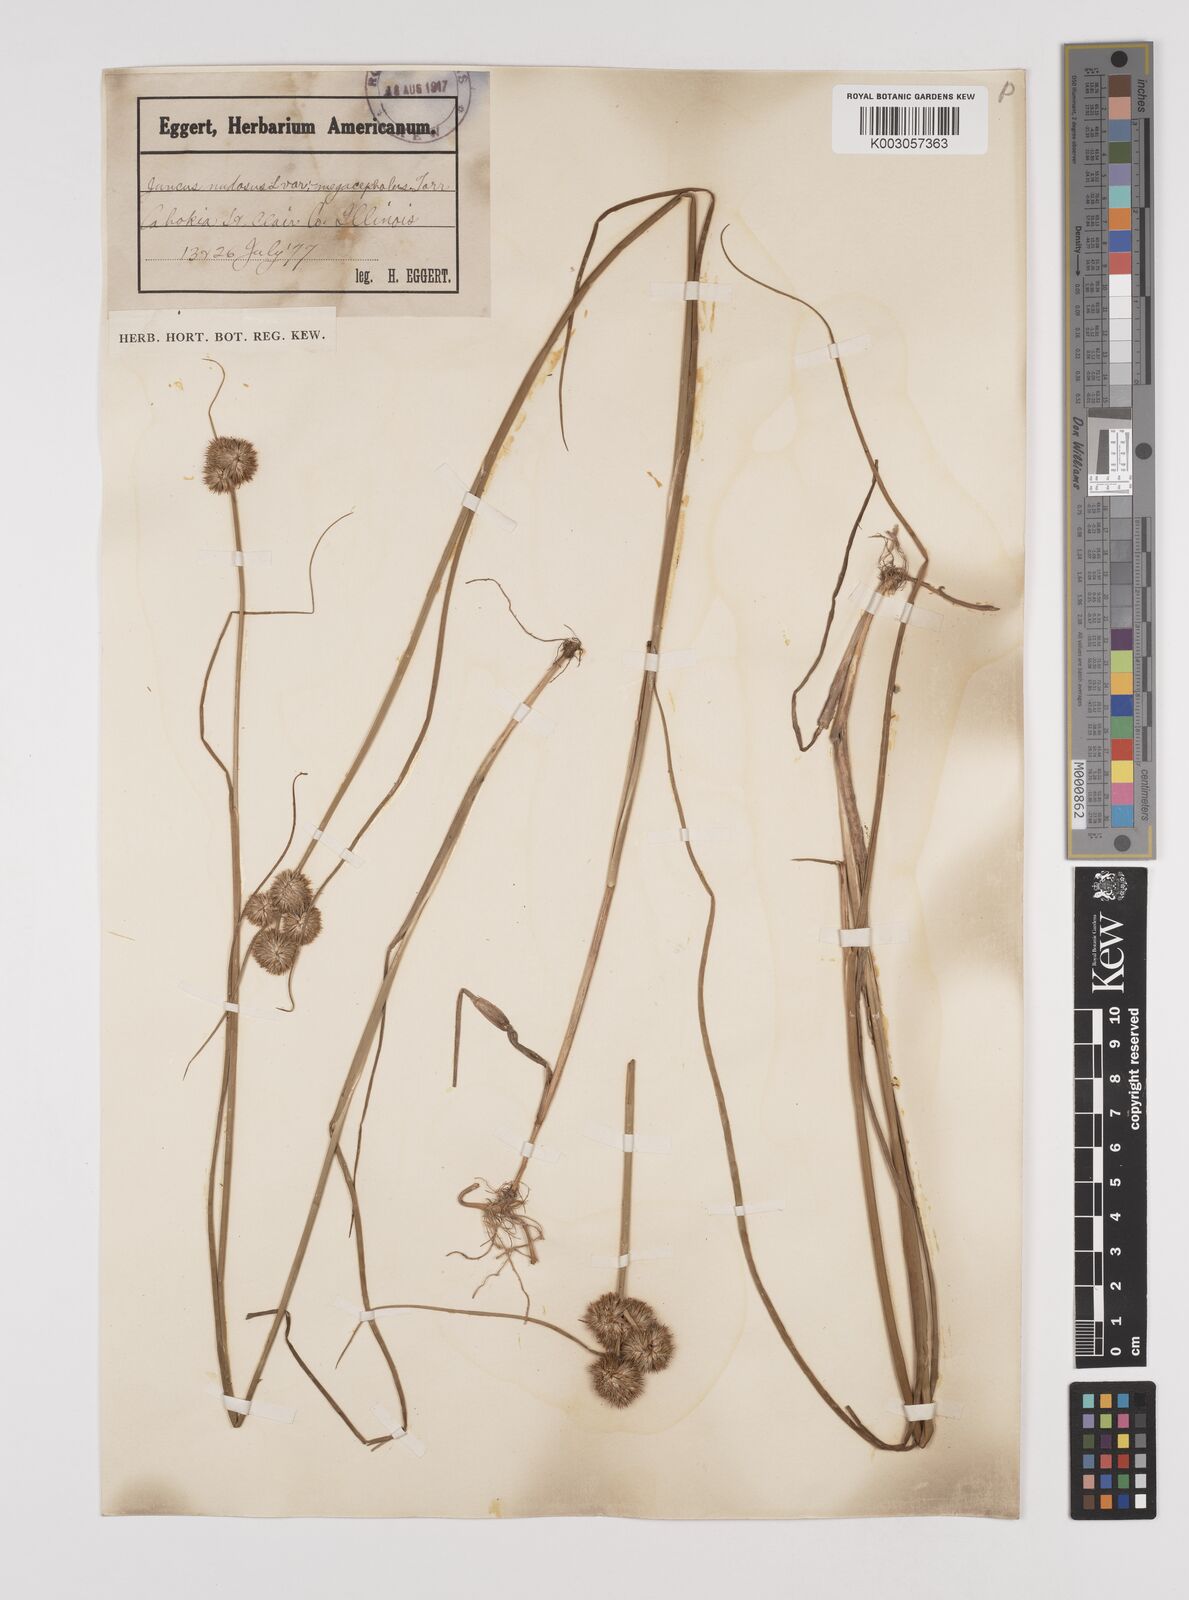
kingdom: Plantae
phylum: Tracheophyta
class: Liliopsida
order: Poales
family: Juncaceae
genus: Juncus
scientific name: Juncus nodosus
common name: Knotted rush
